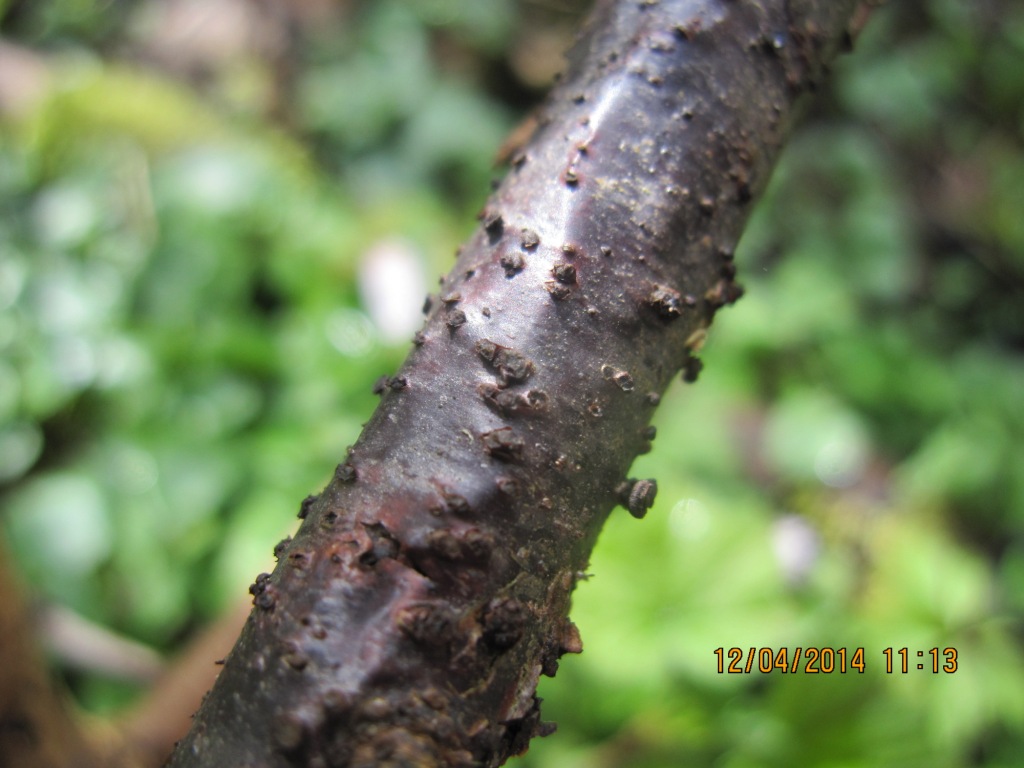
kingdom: Fungi
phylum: Ascomycota
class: Leotiomycetes
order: Helotiales
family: Godroniaceae
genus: Godronia
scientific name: Godronia ribis
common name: ribs-urneskive
